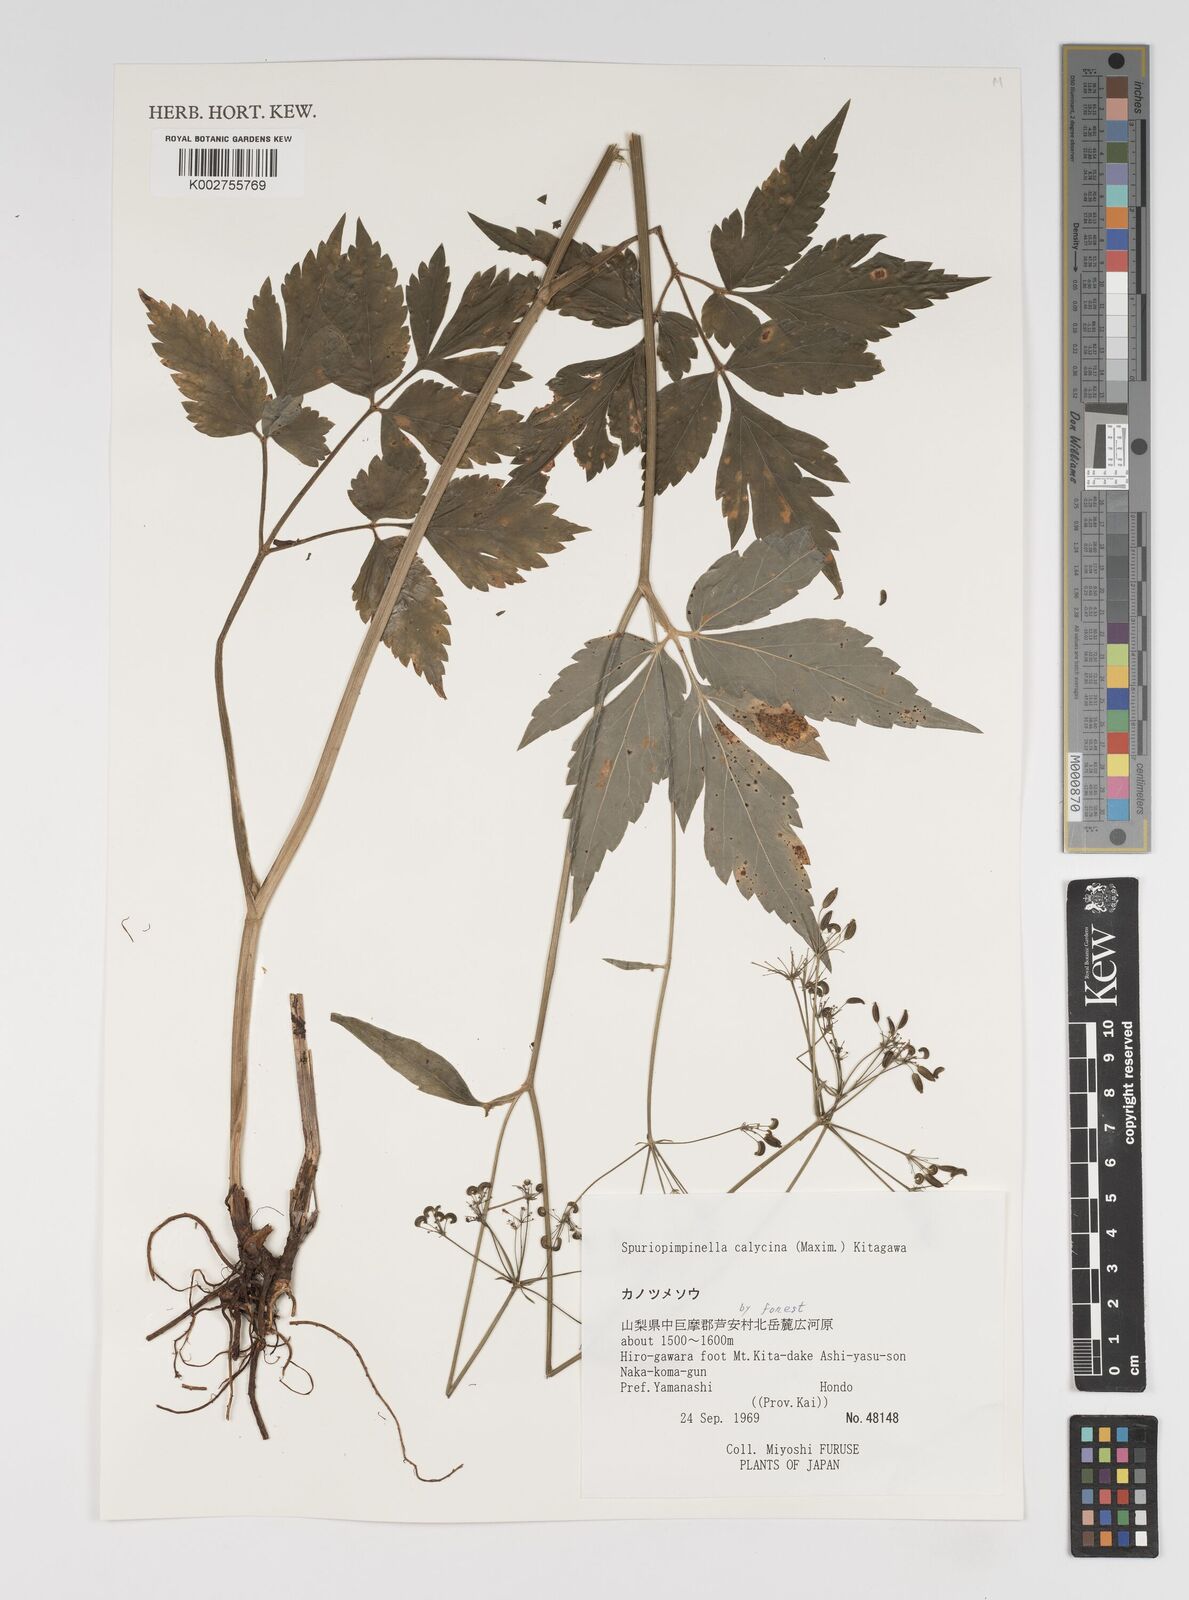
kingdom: Plantae
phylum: Tracheophyta
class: Magnoliopsida
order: Apiales
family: Apiaceae
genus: Spuriopimpinella
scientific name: Spuriopimpinella calycina
